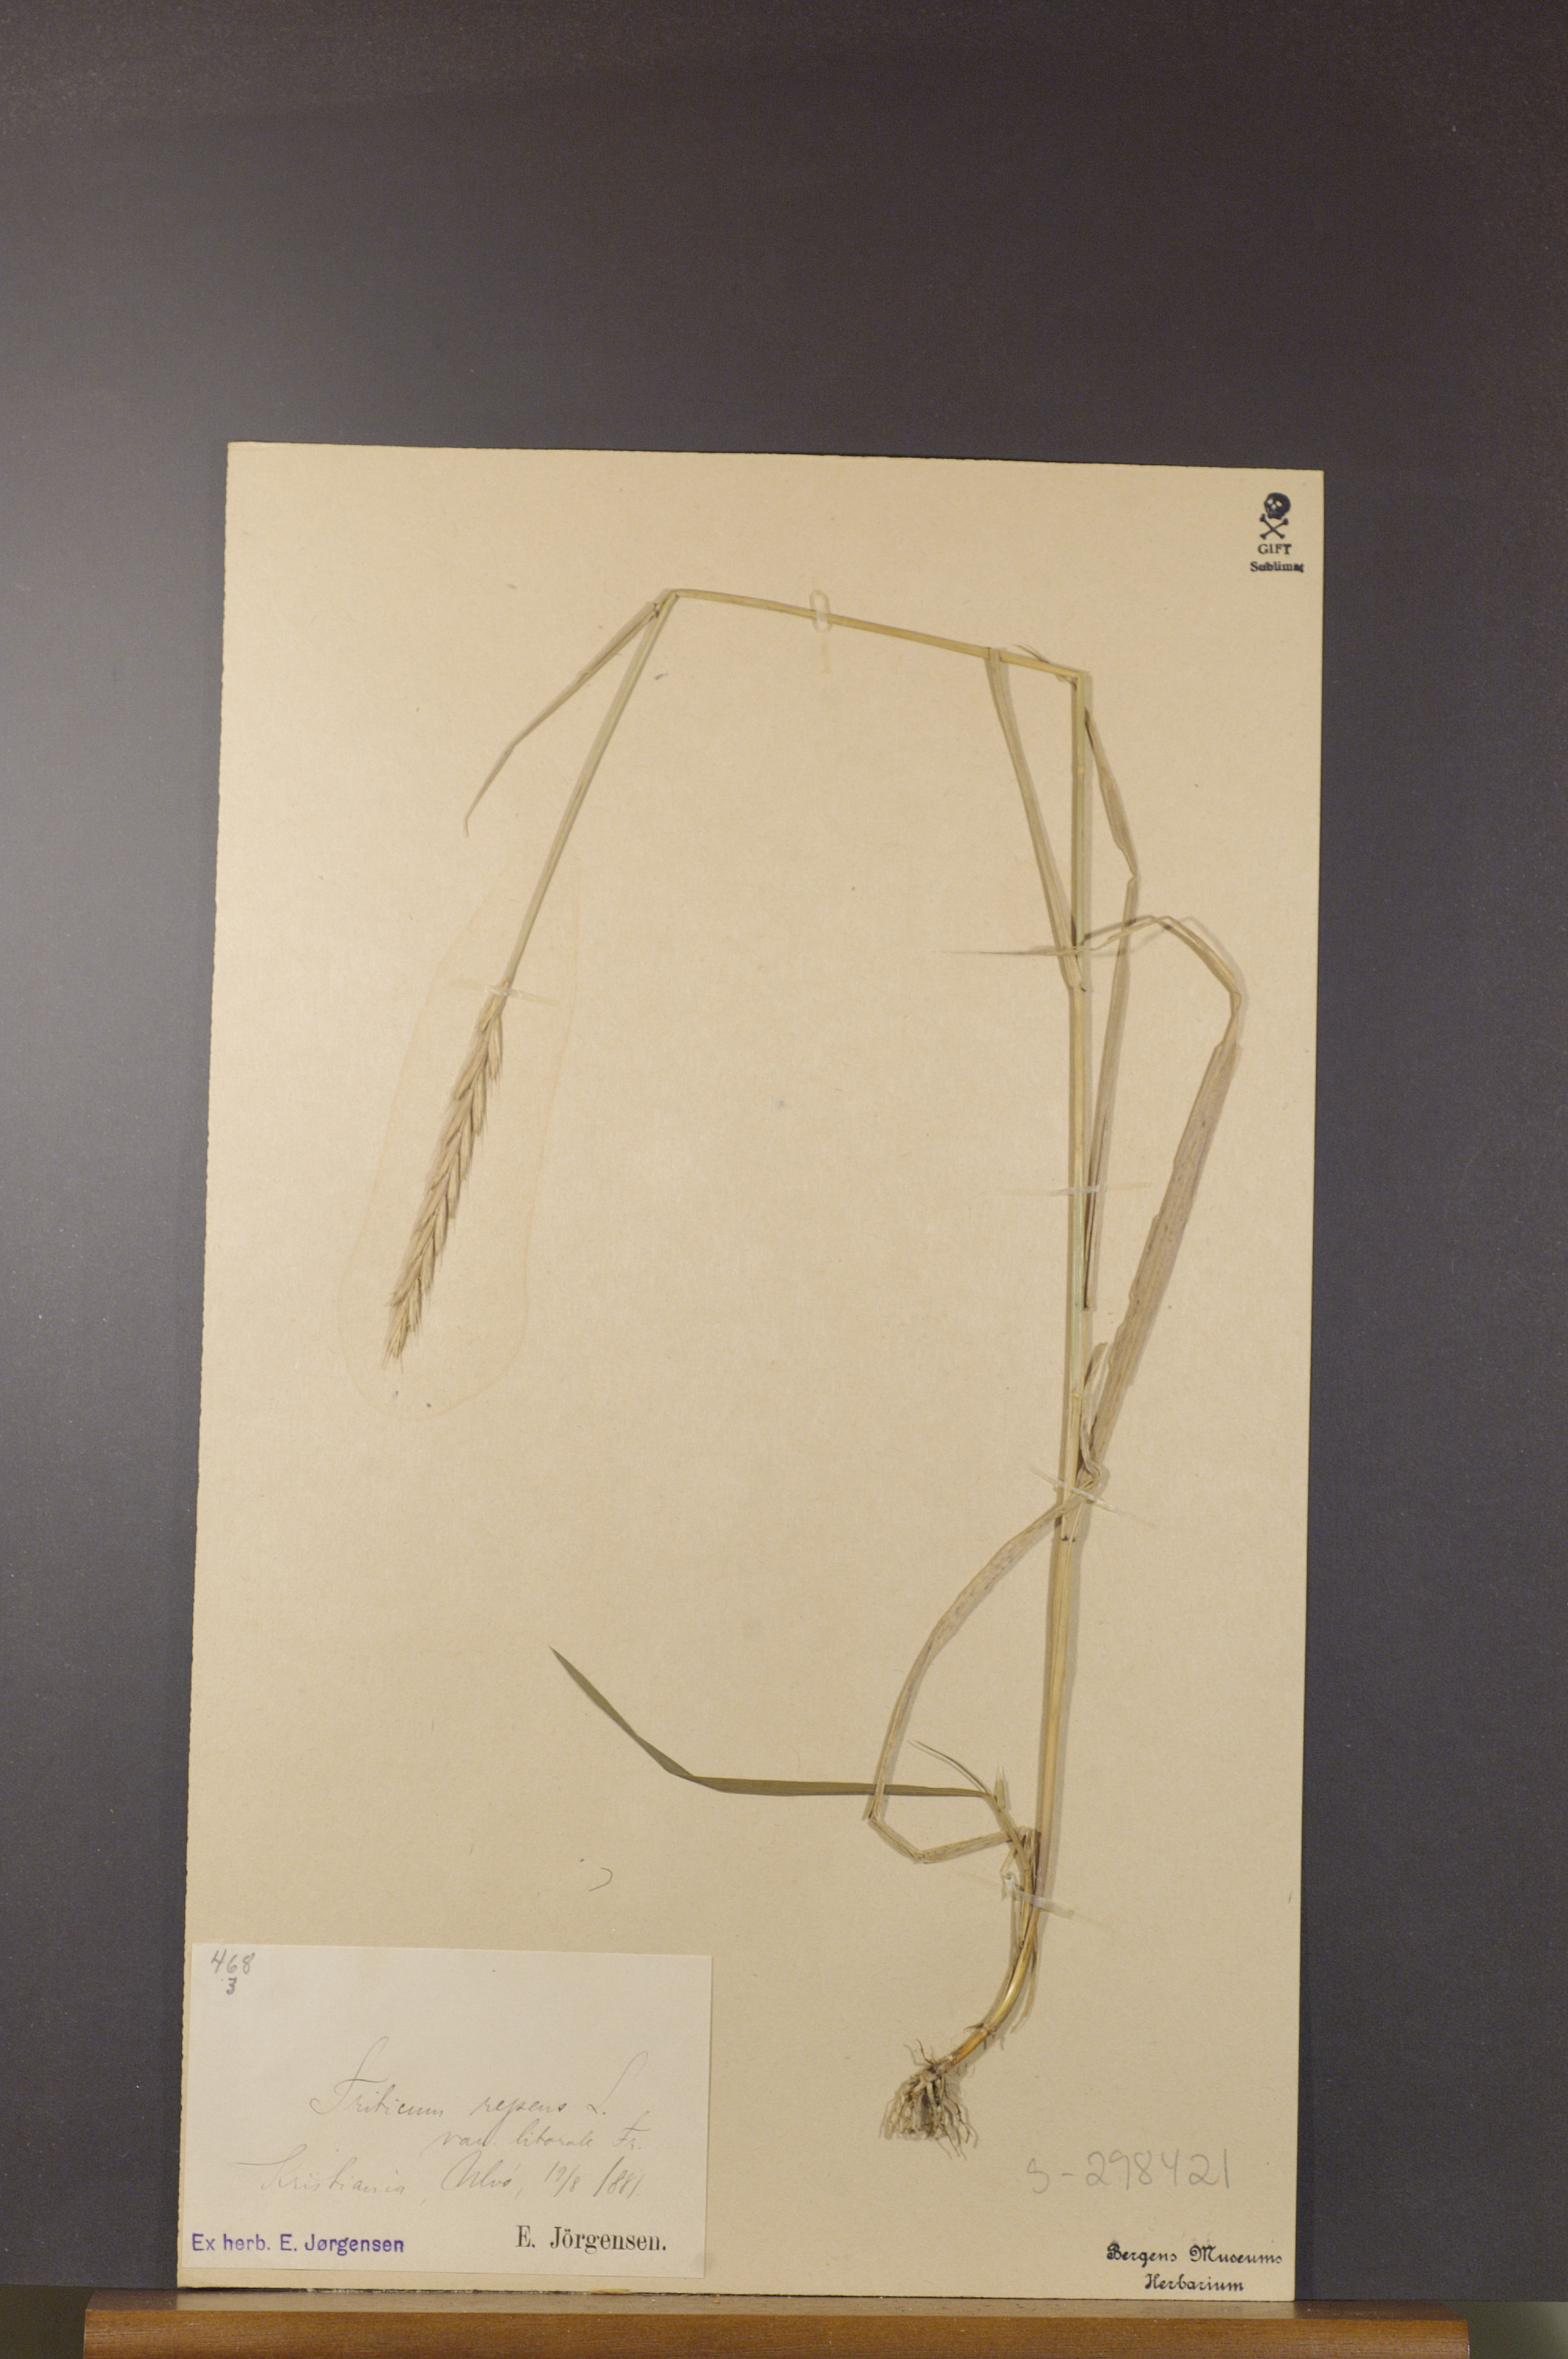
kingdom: Plantae
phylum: Tracheophyta
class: Liliopsida
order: Poales
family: Poaceae
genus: Elymus
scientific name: Elymus repens
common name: Quackgrass
